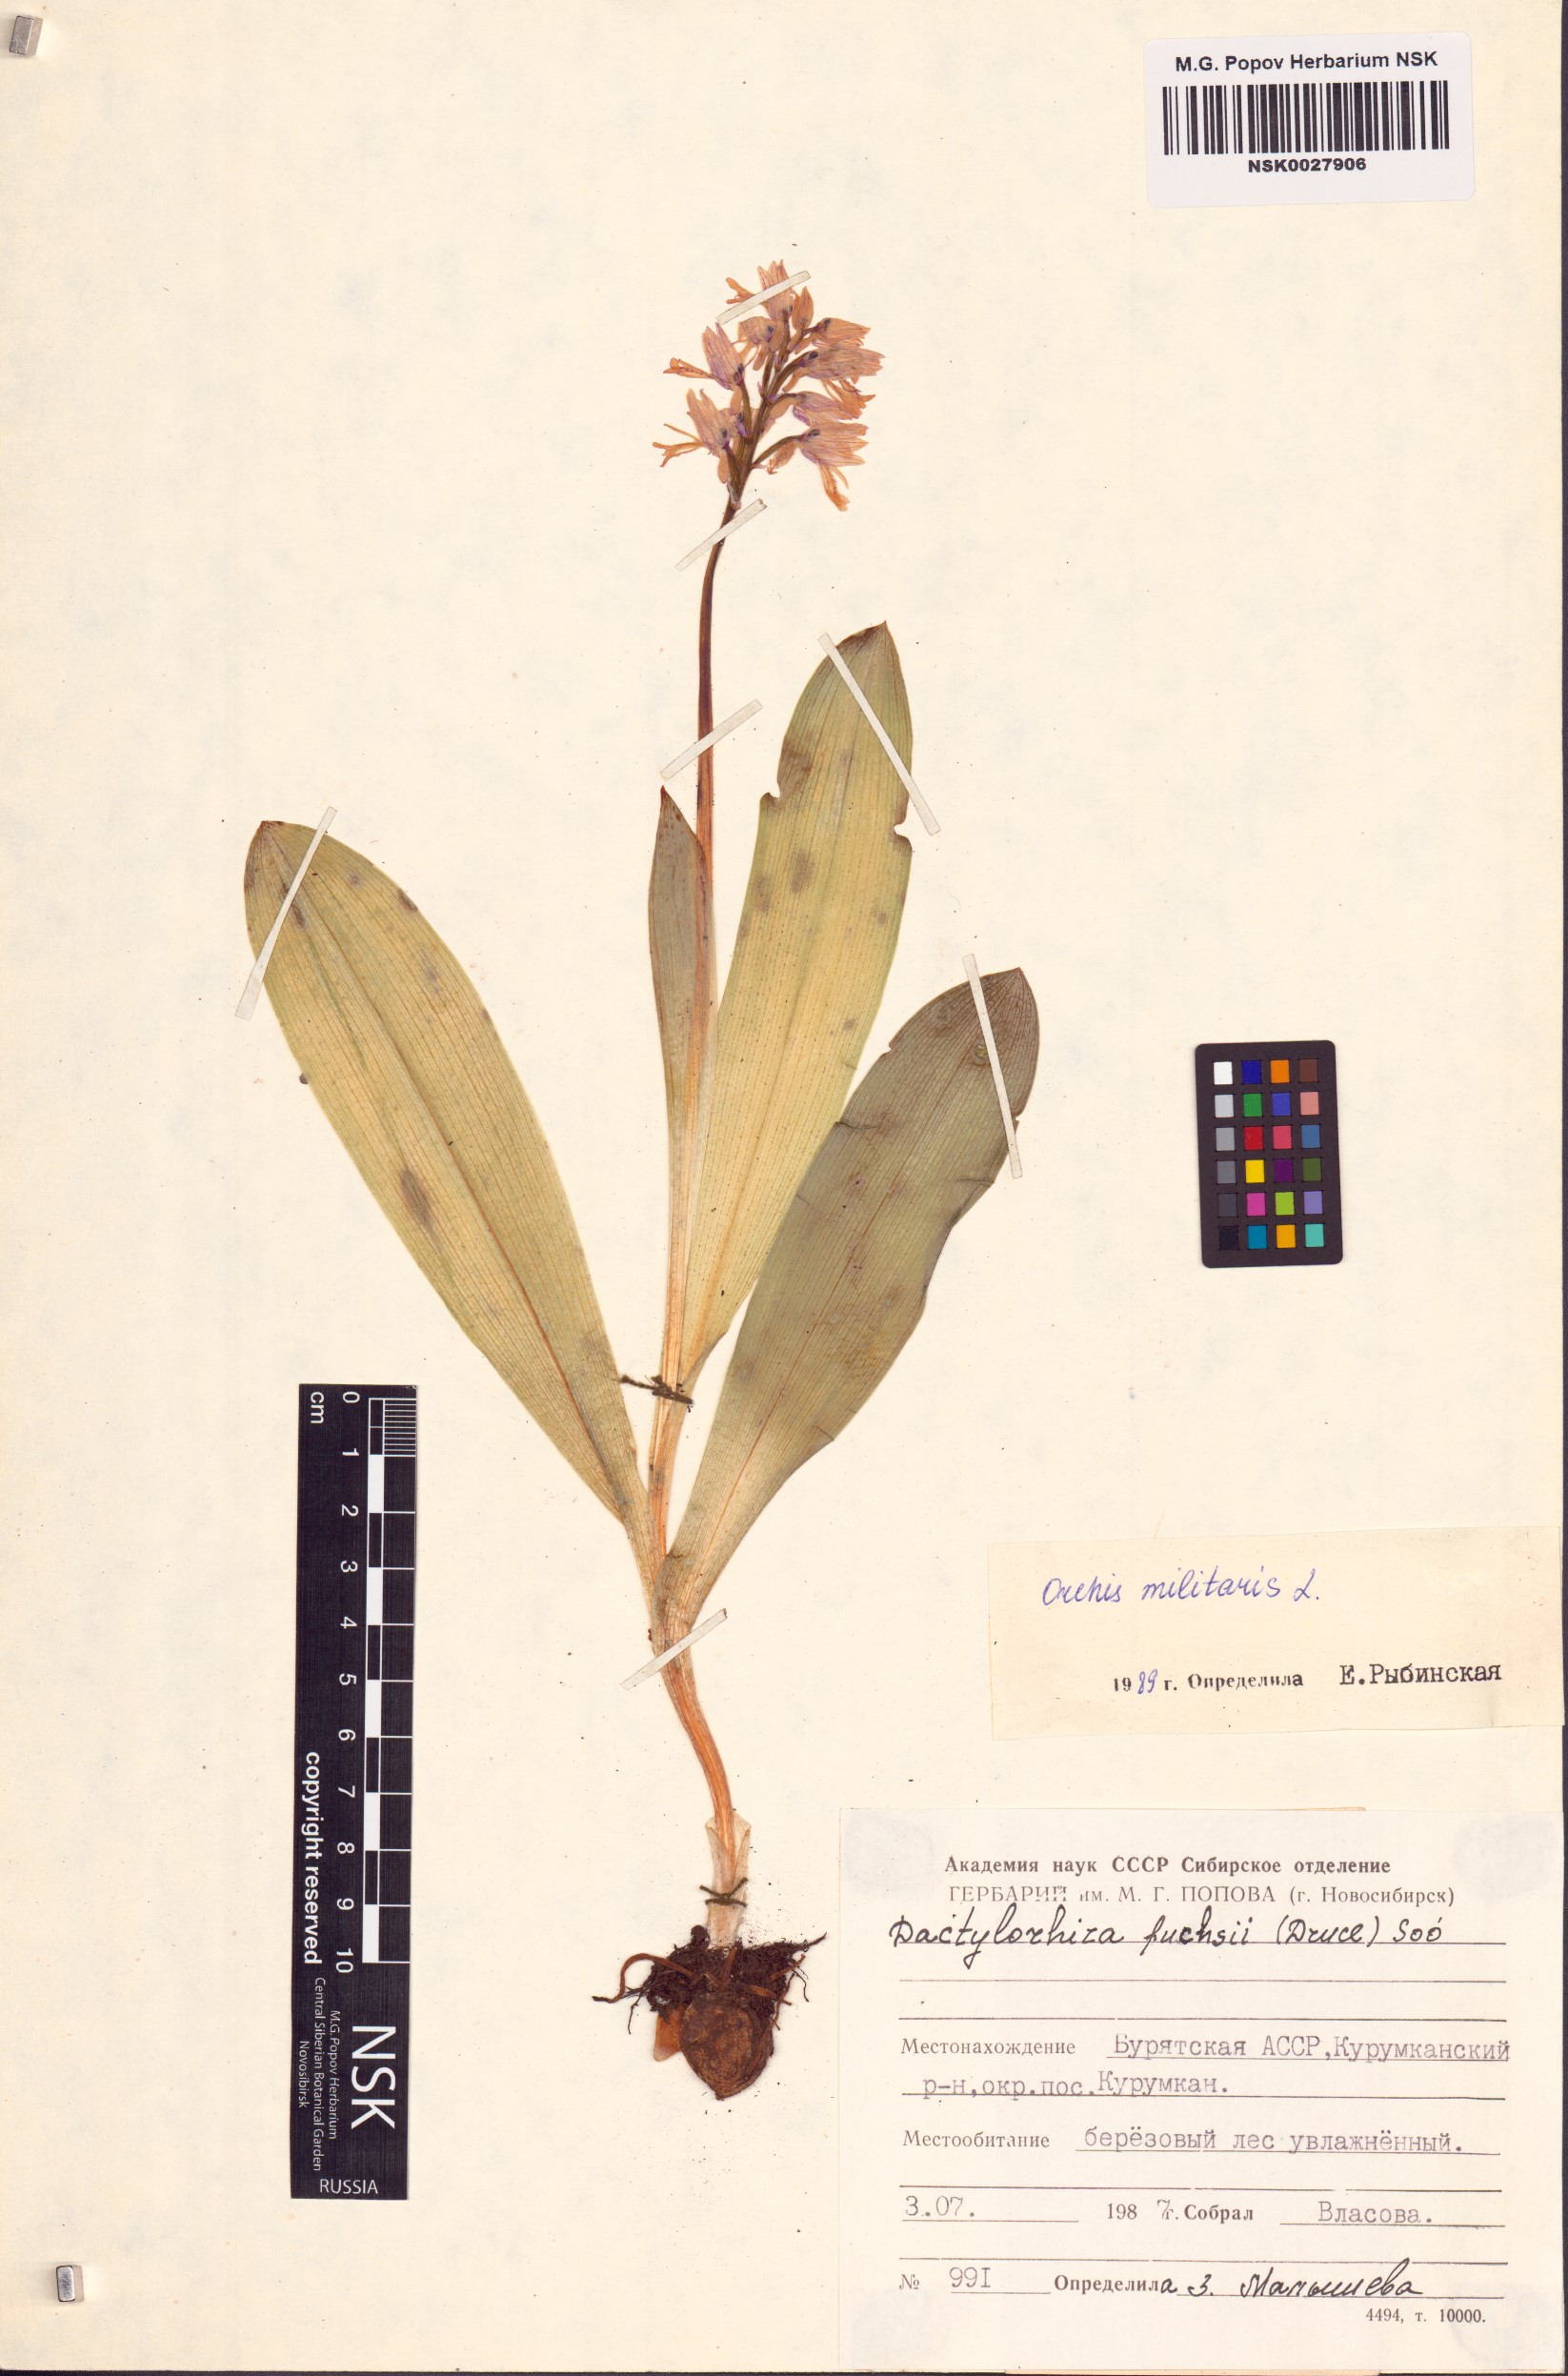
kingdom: Plantae
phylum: Tracheophyta
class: Liliopsida
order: Asparagales
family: Orchidaceae
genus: Orchis
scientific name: Orchis militaris
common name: Military orchid
